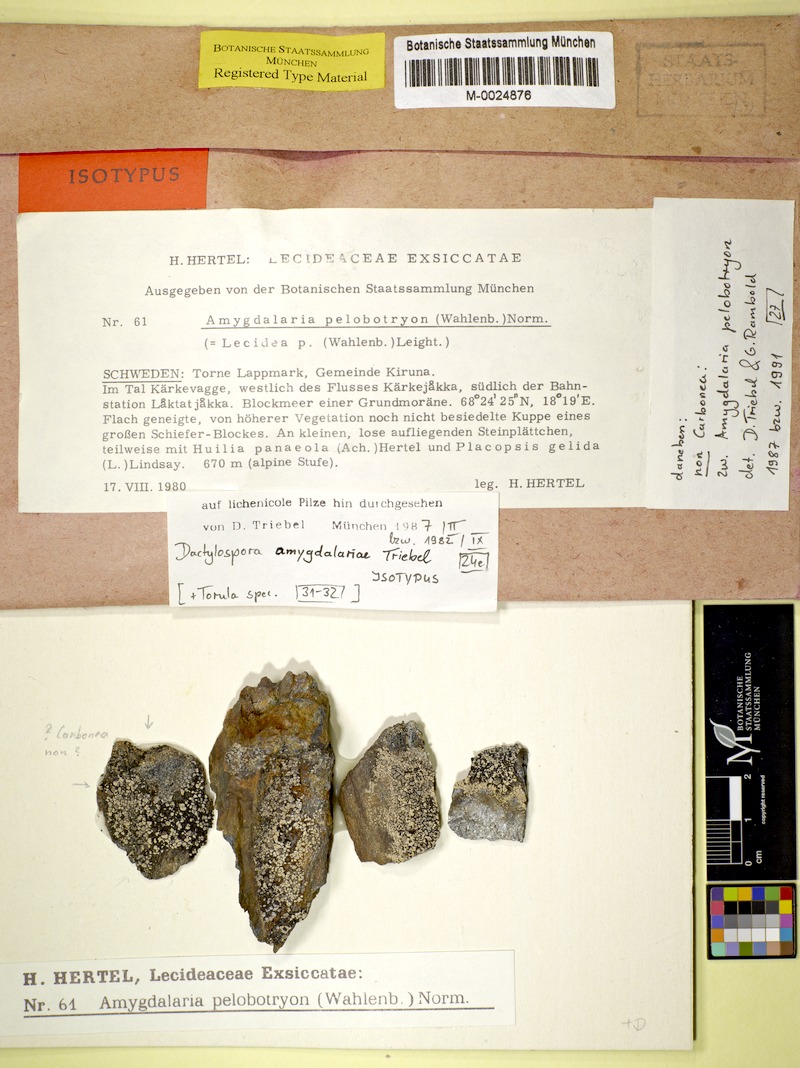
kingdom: Fungi
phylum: Ascomycota
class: Lecanoromycetes
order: Lecideales
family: Lecideaceae
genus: Amygdalaria
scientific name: Amygdalaria pelobotryon
